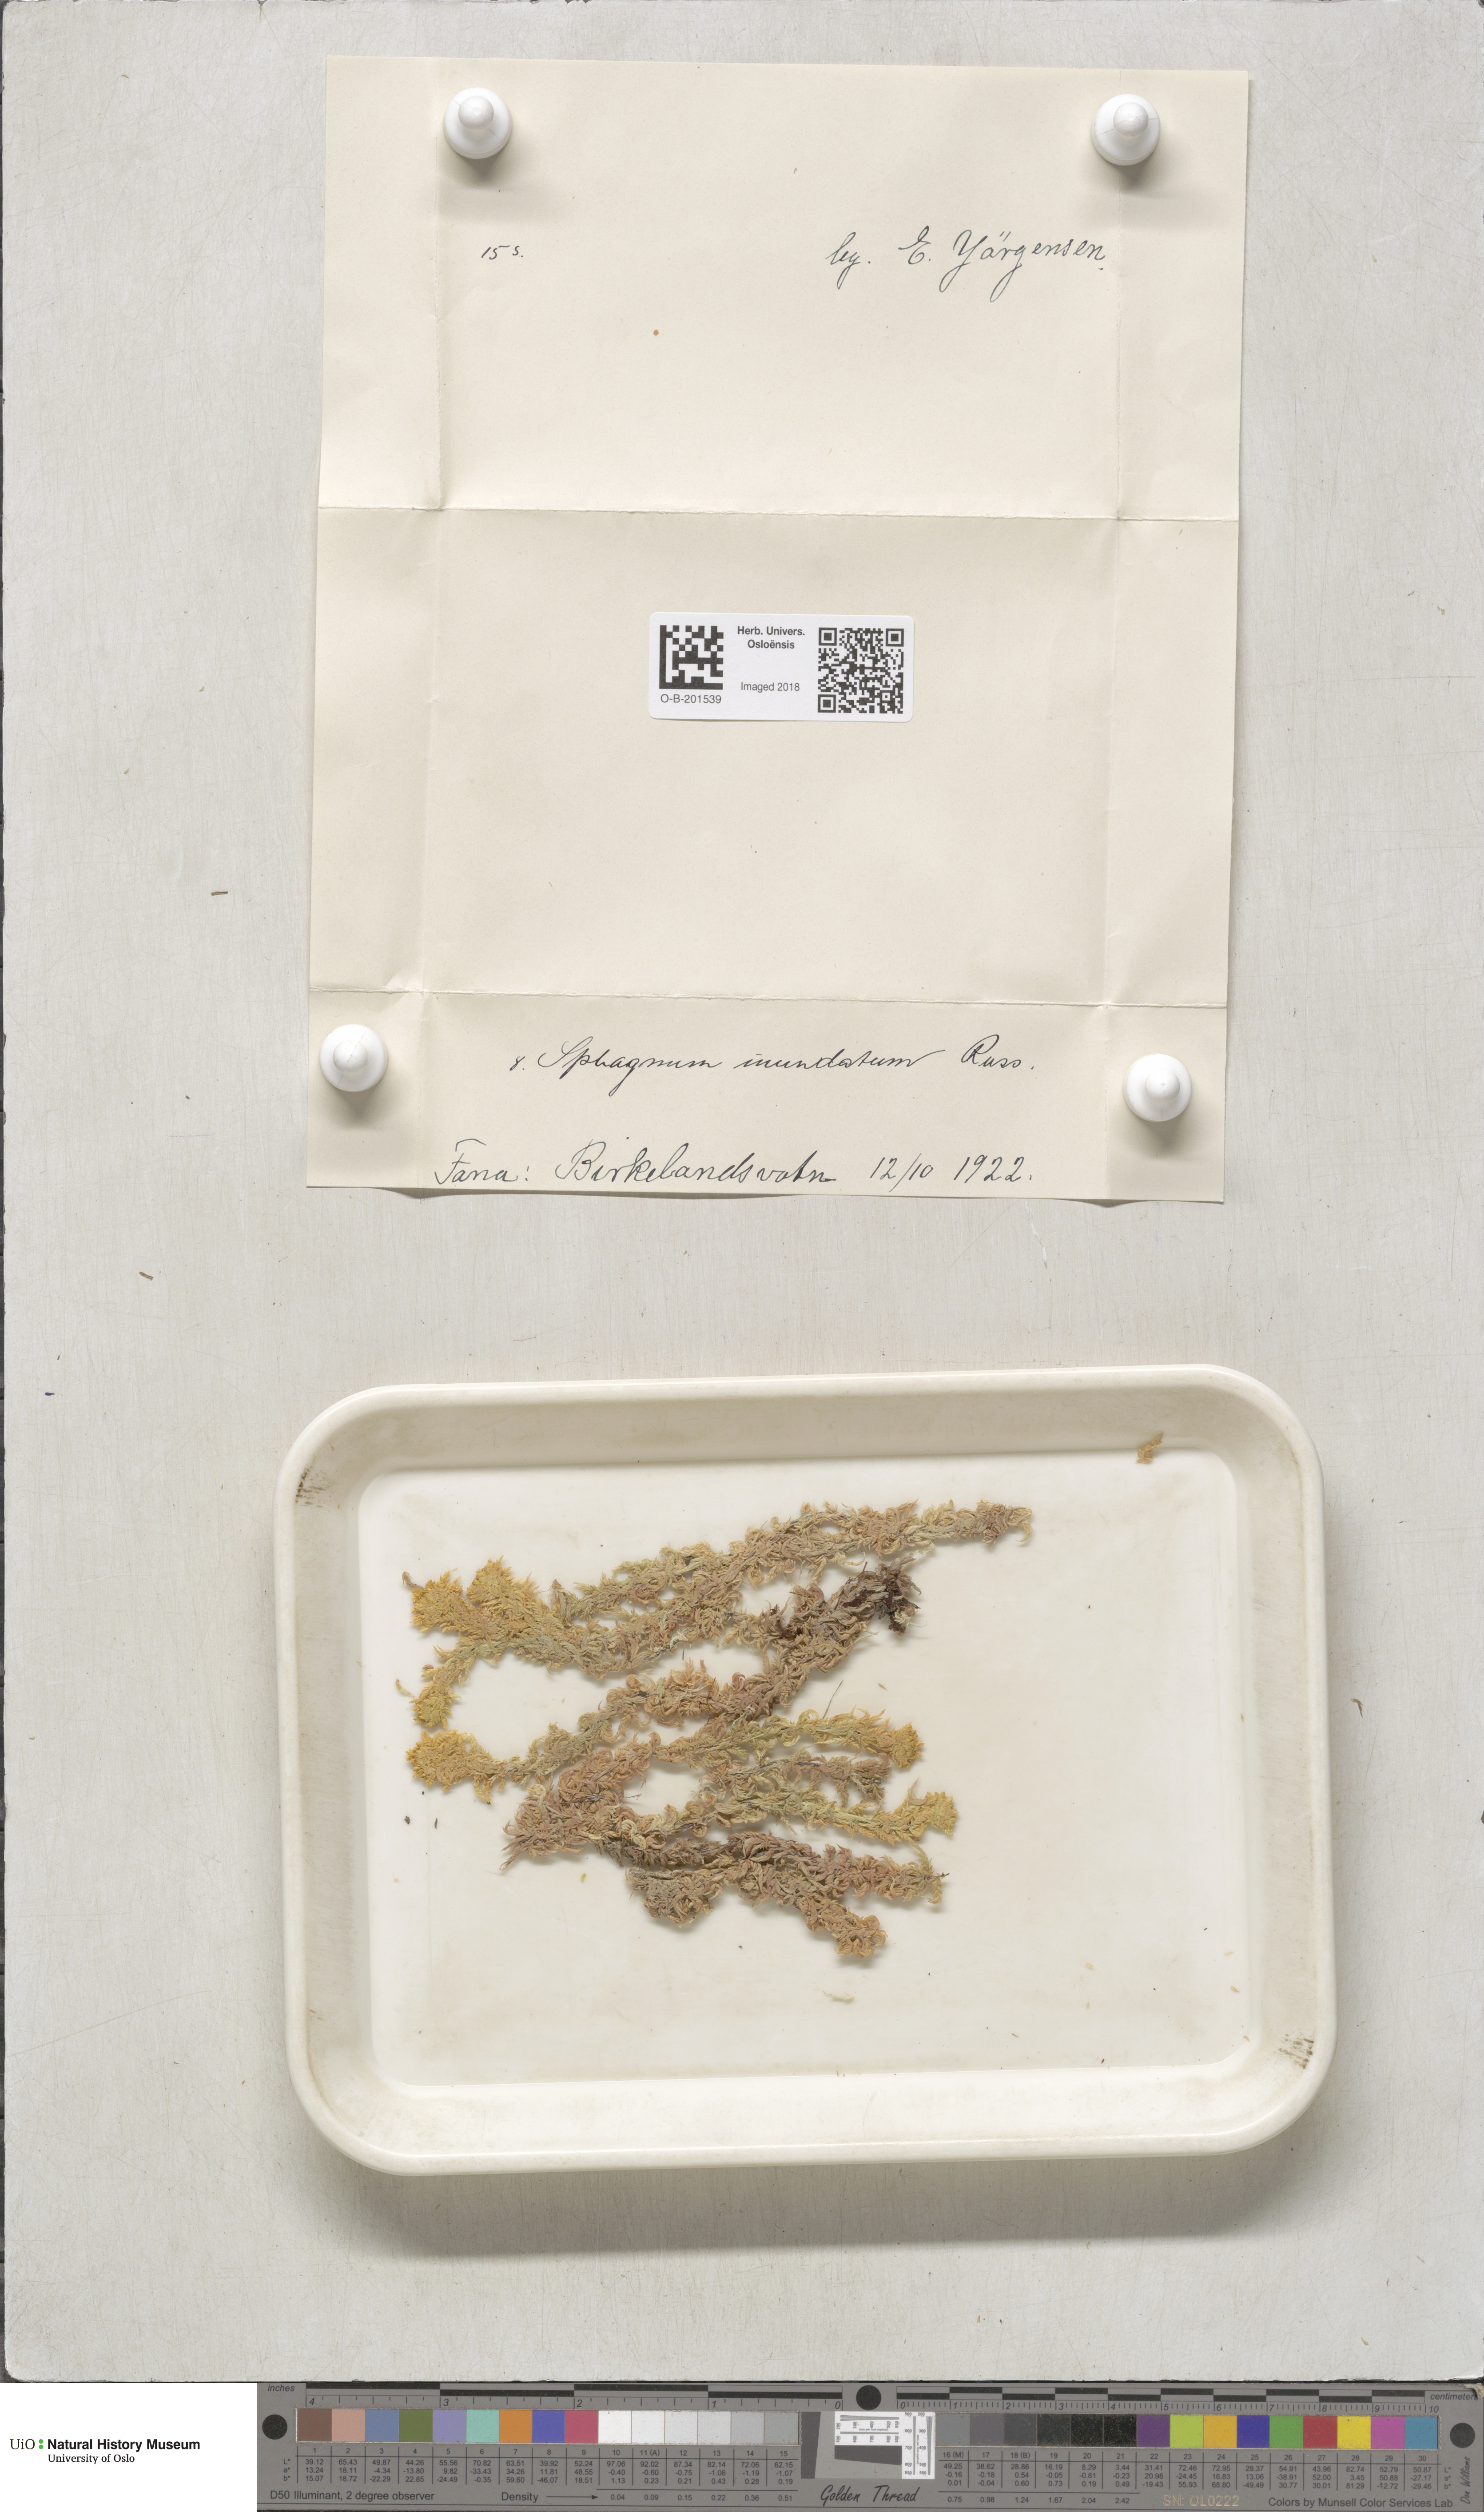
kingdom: Plantae
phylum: Bryophyta
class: Sphagnopsida
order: Sphagnales
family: Sphagnaceae
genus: Sphagnum
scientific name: Sphagnum inundatum
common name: Lesser cow-horn bog-moss
